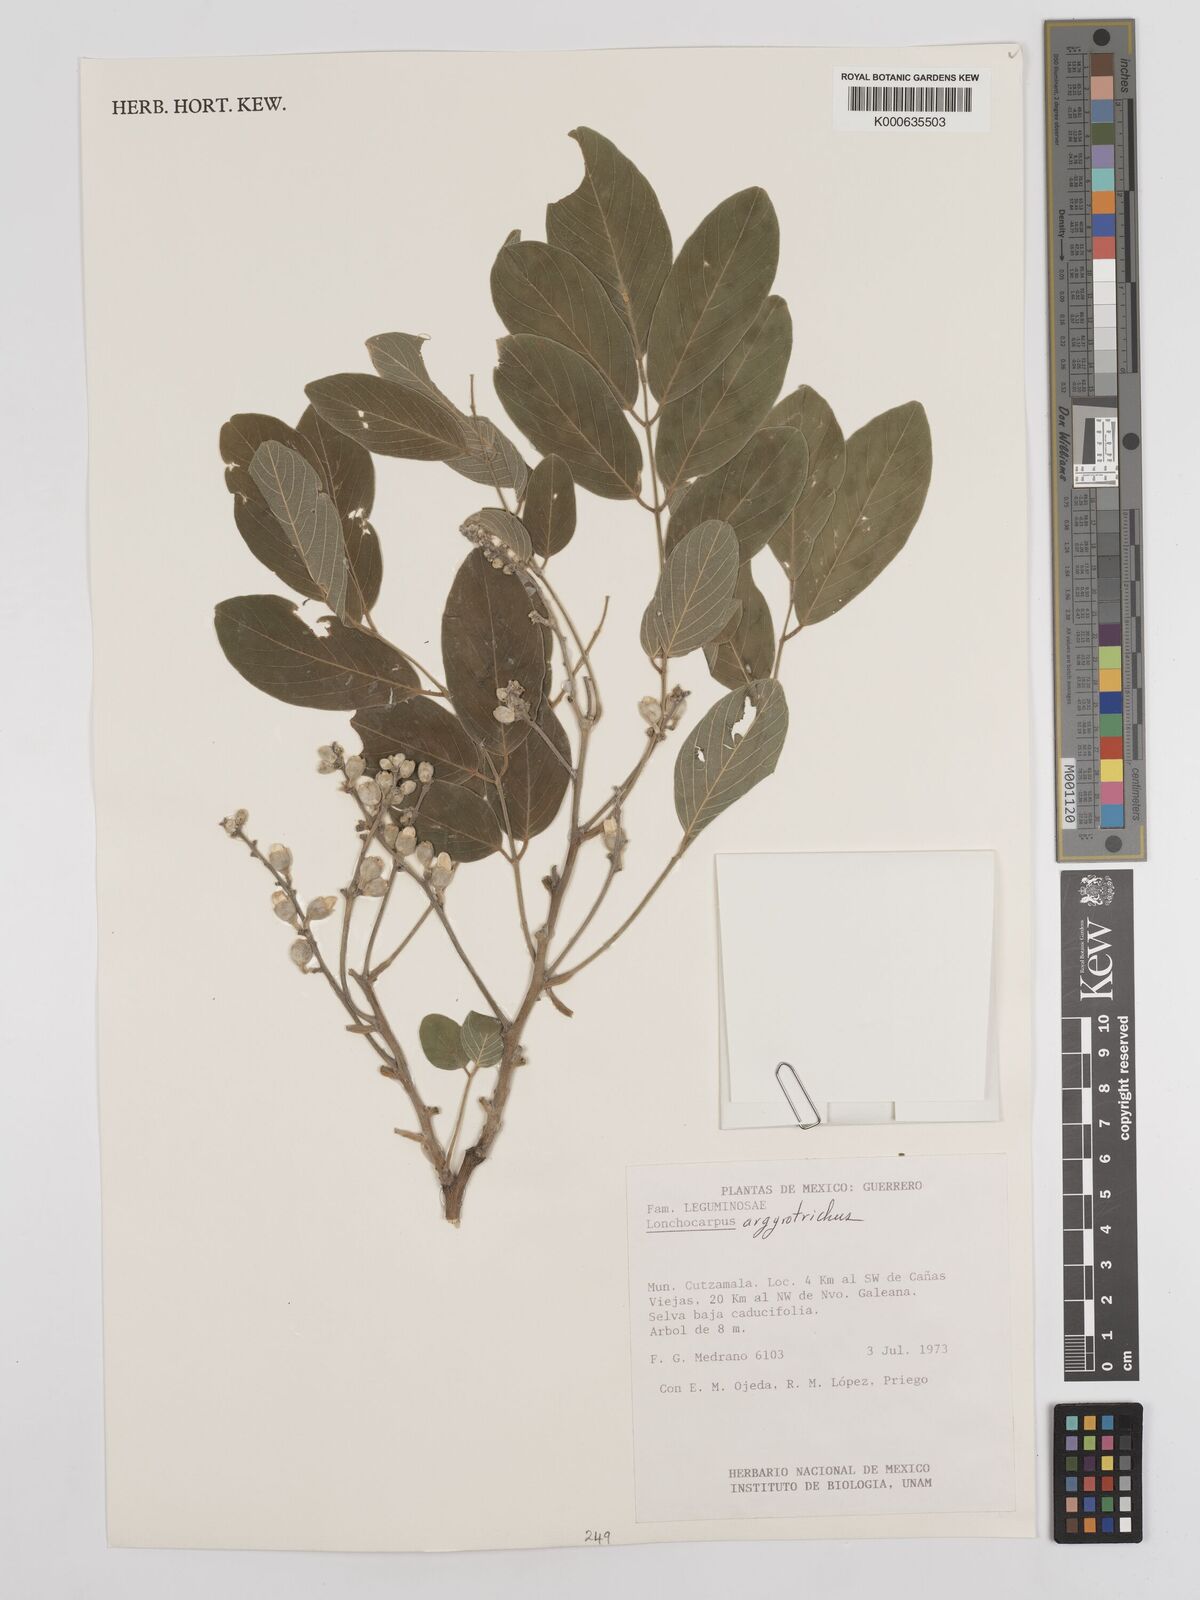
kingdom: Plantae
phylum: Tracheophyta
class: Magnoliopsida
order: Fabales
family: Fabaceae
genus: Lonchocarpus
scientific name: Lonchocarpus argyrotrichus
